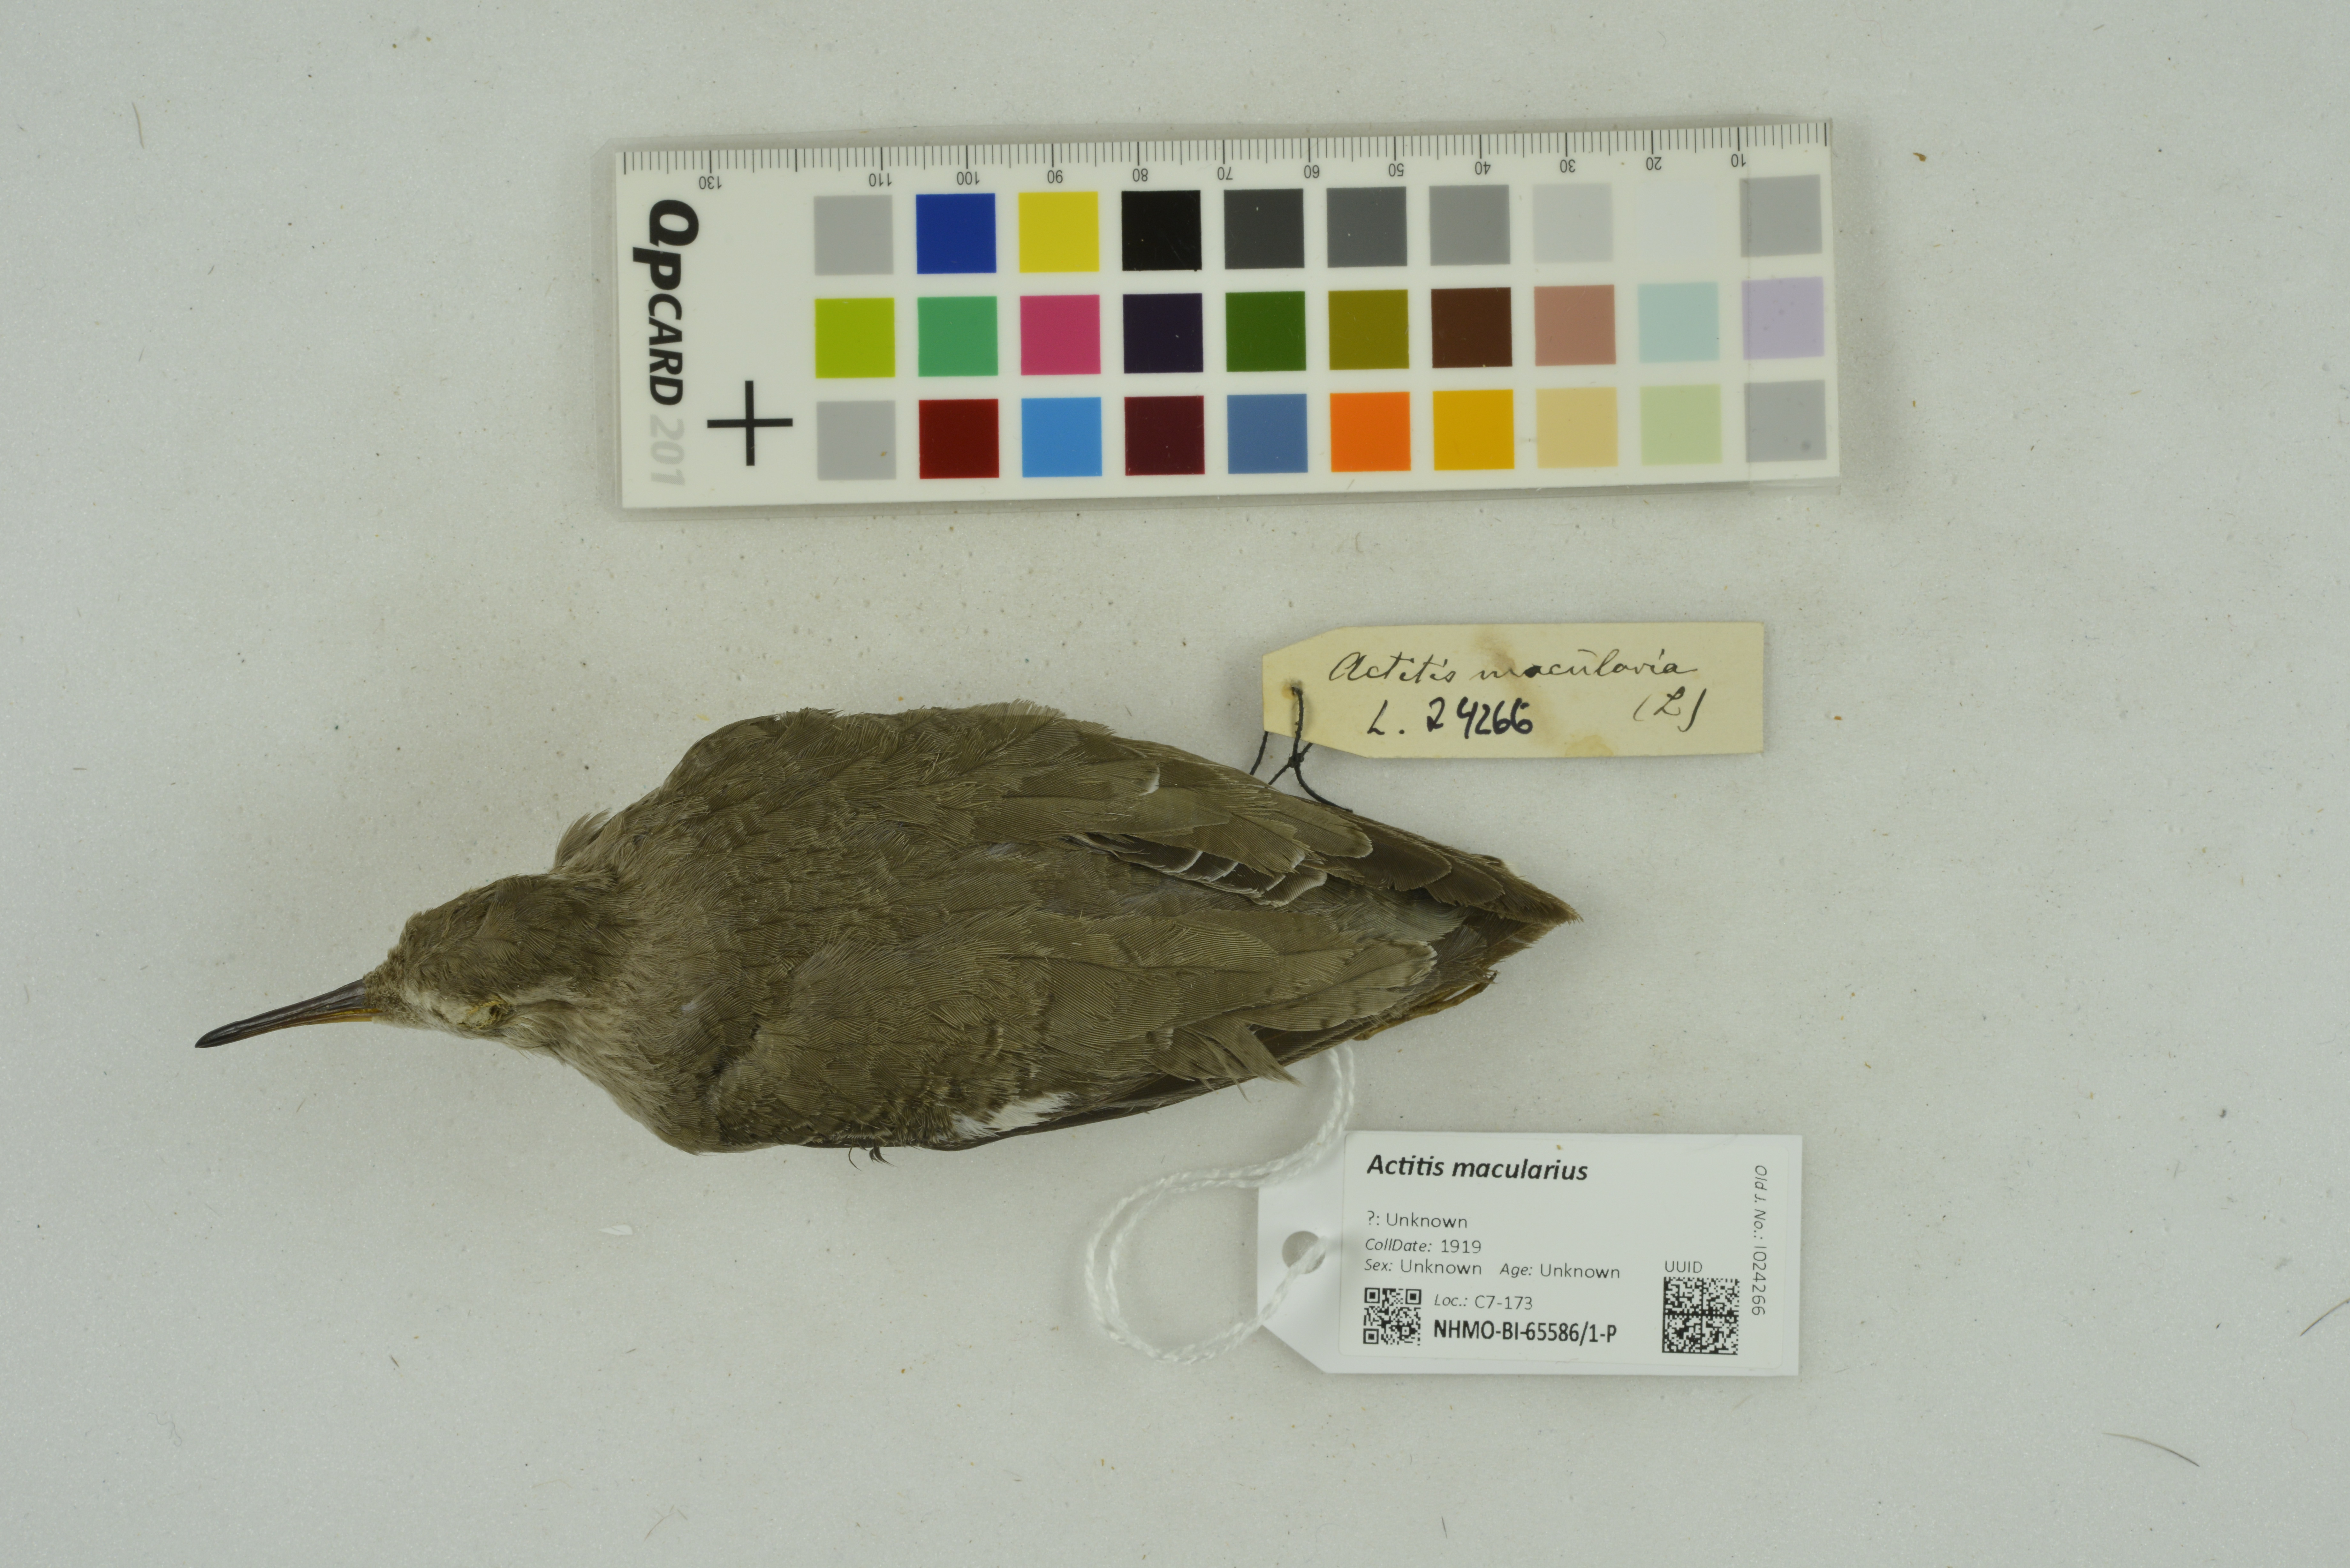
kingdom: Animalia
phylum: Chordata
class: Aves
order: Charadriiformes
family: Scolopacidae
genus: Actitis
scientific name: Actitis macularius
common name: Spotted sandpiper
